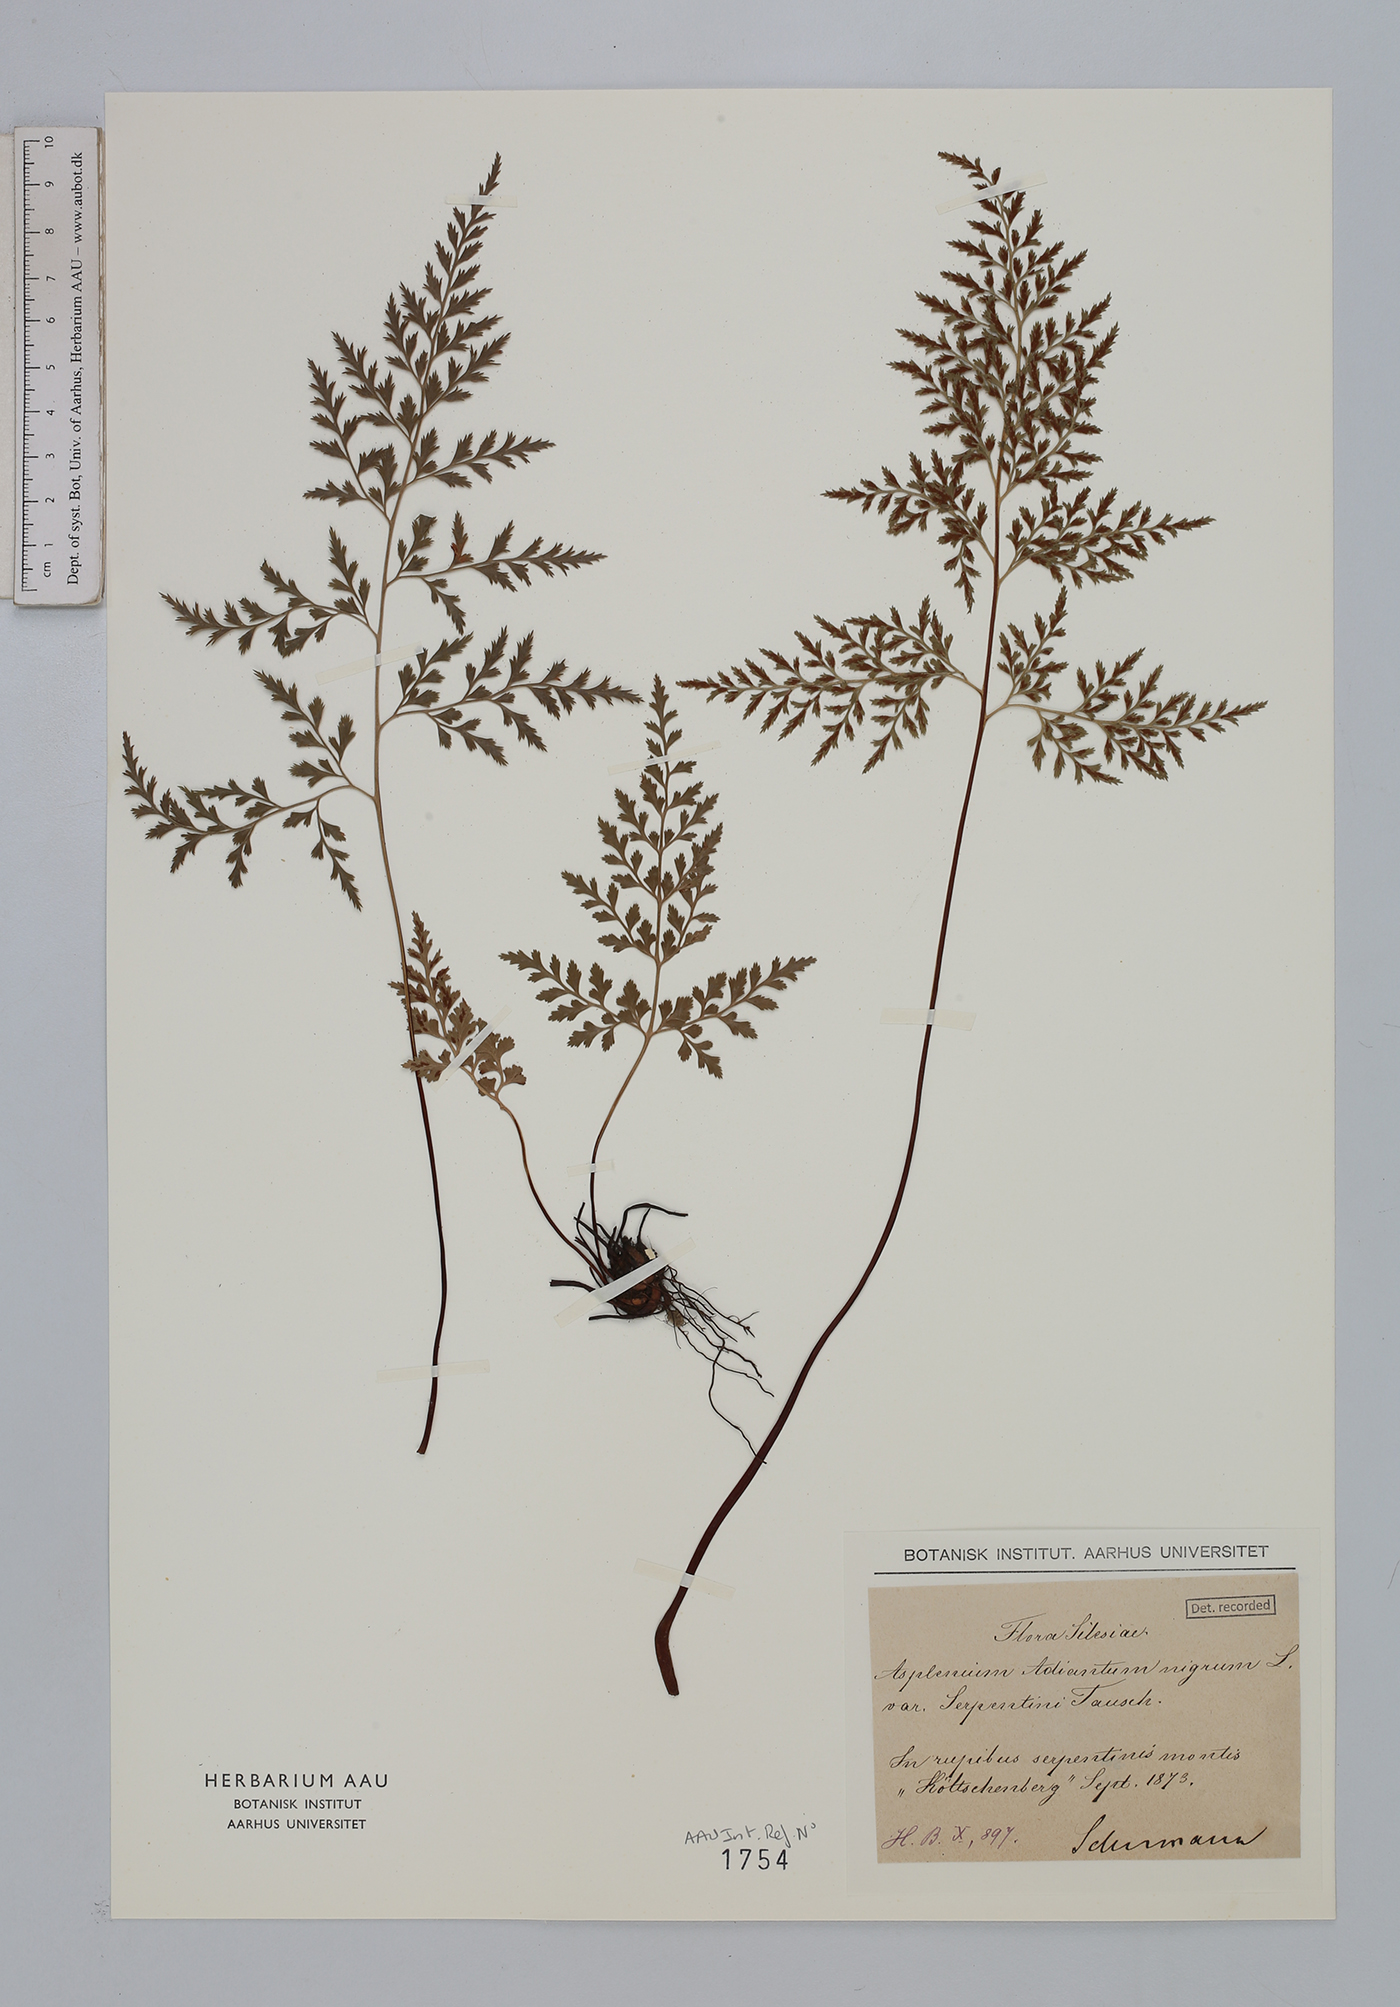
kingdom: Plantae
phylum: Tracheophyta
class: Polypodiopsida
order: Polypodiales
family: Aspleniaceae
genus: Asplenium
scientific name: Asplenium cuneifolium
